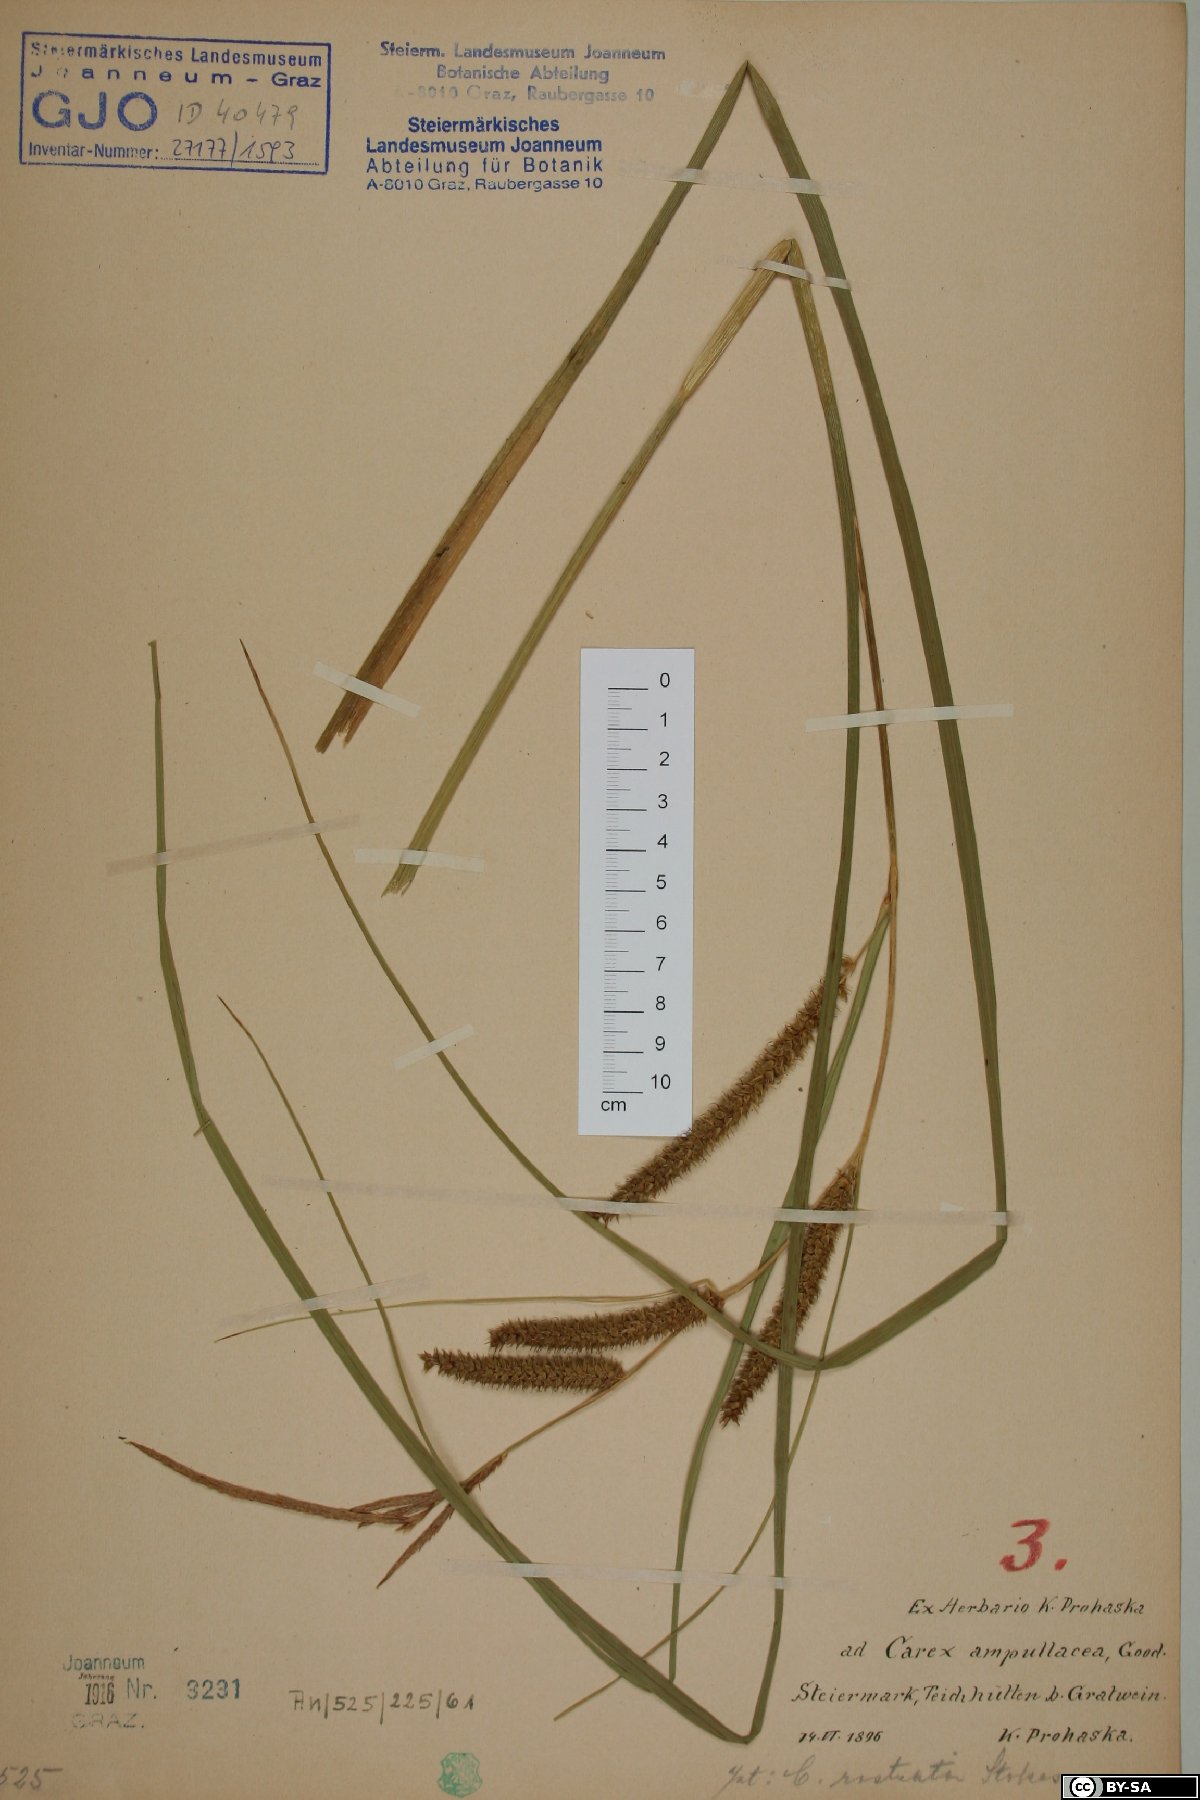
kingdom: Plantae
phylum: Tracheophyta
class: Liliopsida
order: Poales
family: Cyperaceae
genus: Carex
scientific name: Carex rostrata
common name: Bottle sedge
